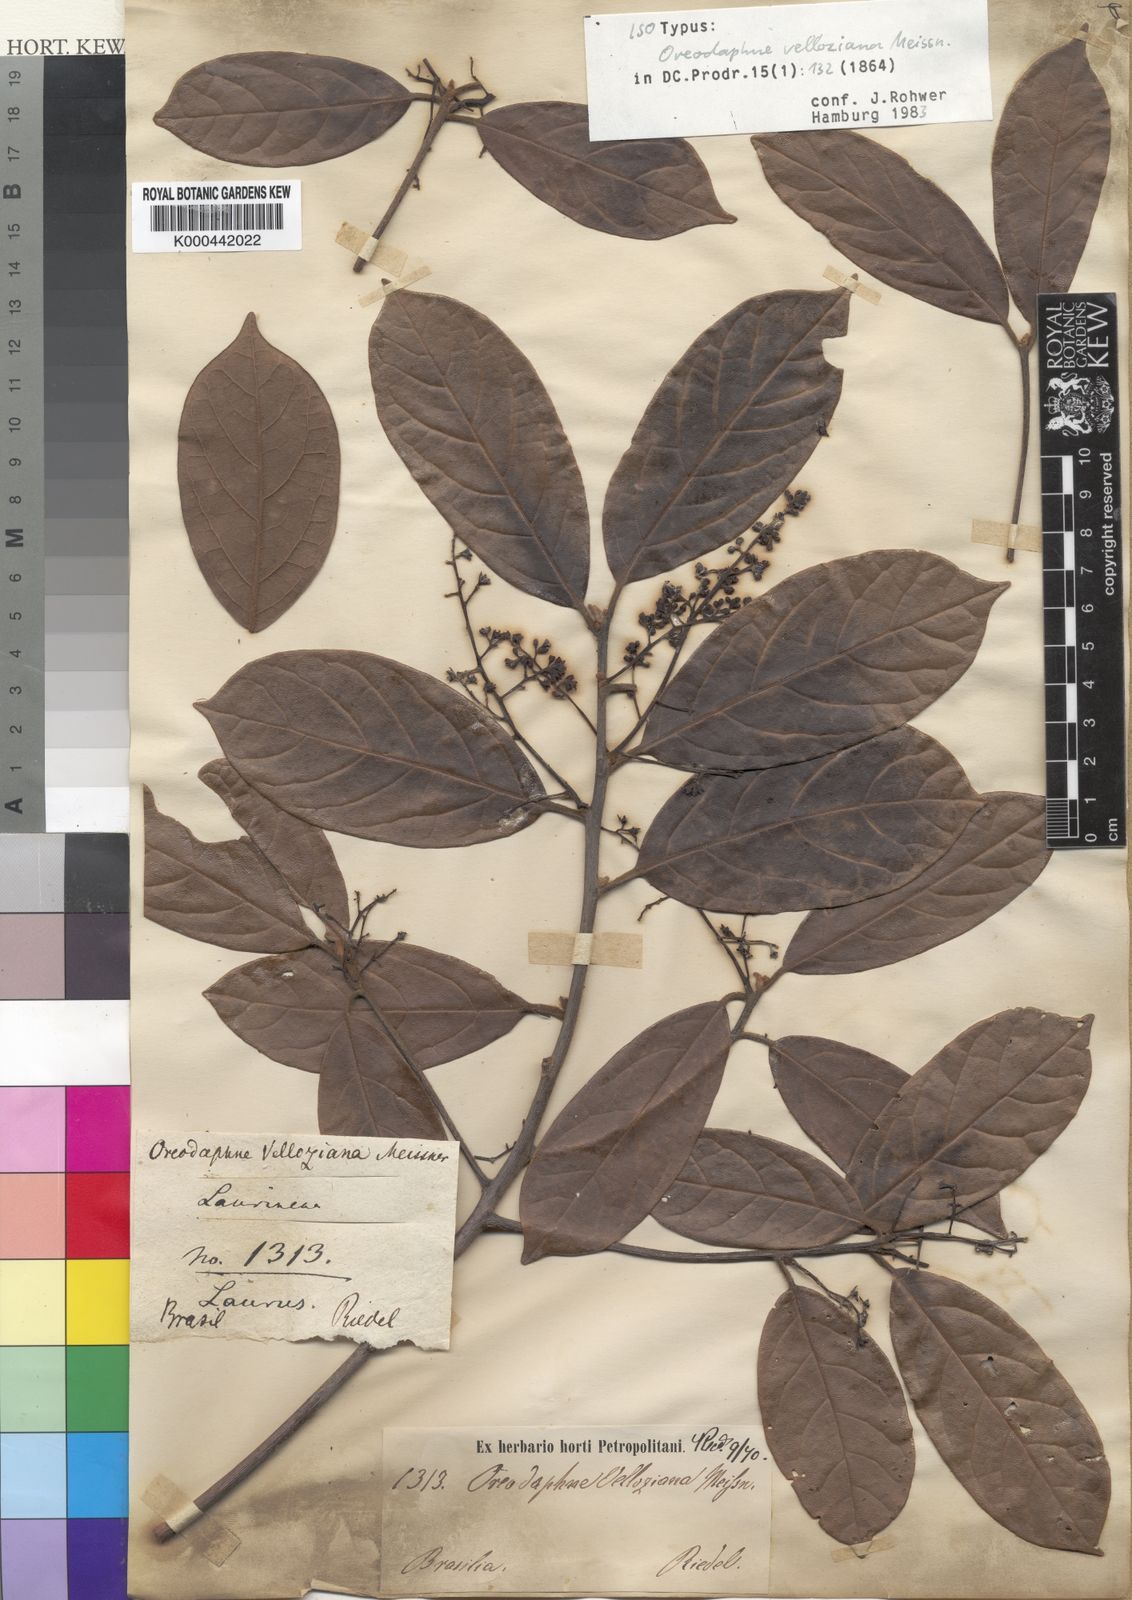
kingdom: Plantae
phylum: Tracheophyta
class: Magnoliopsida
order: Laurales
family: Lauraceae
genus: Ocotea
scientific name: Ocotea velloziana
